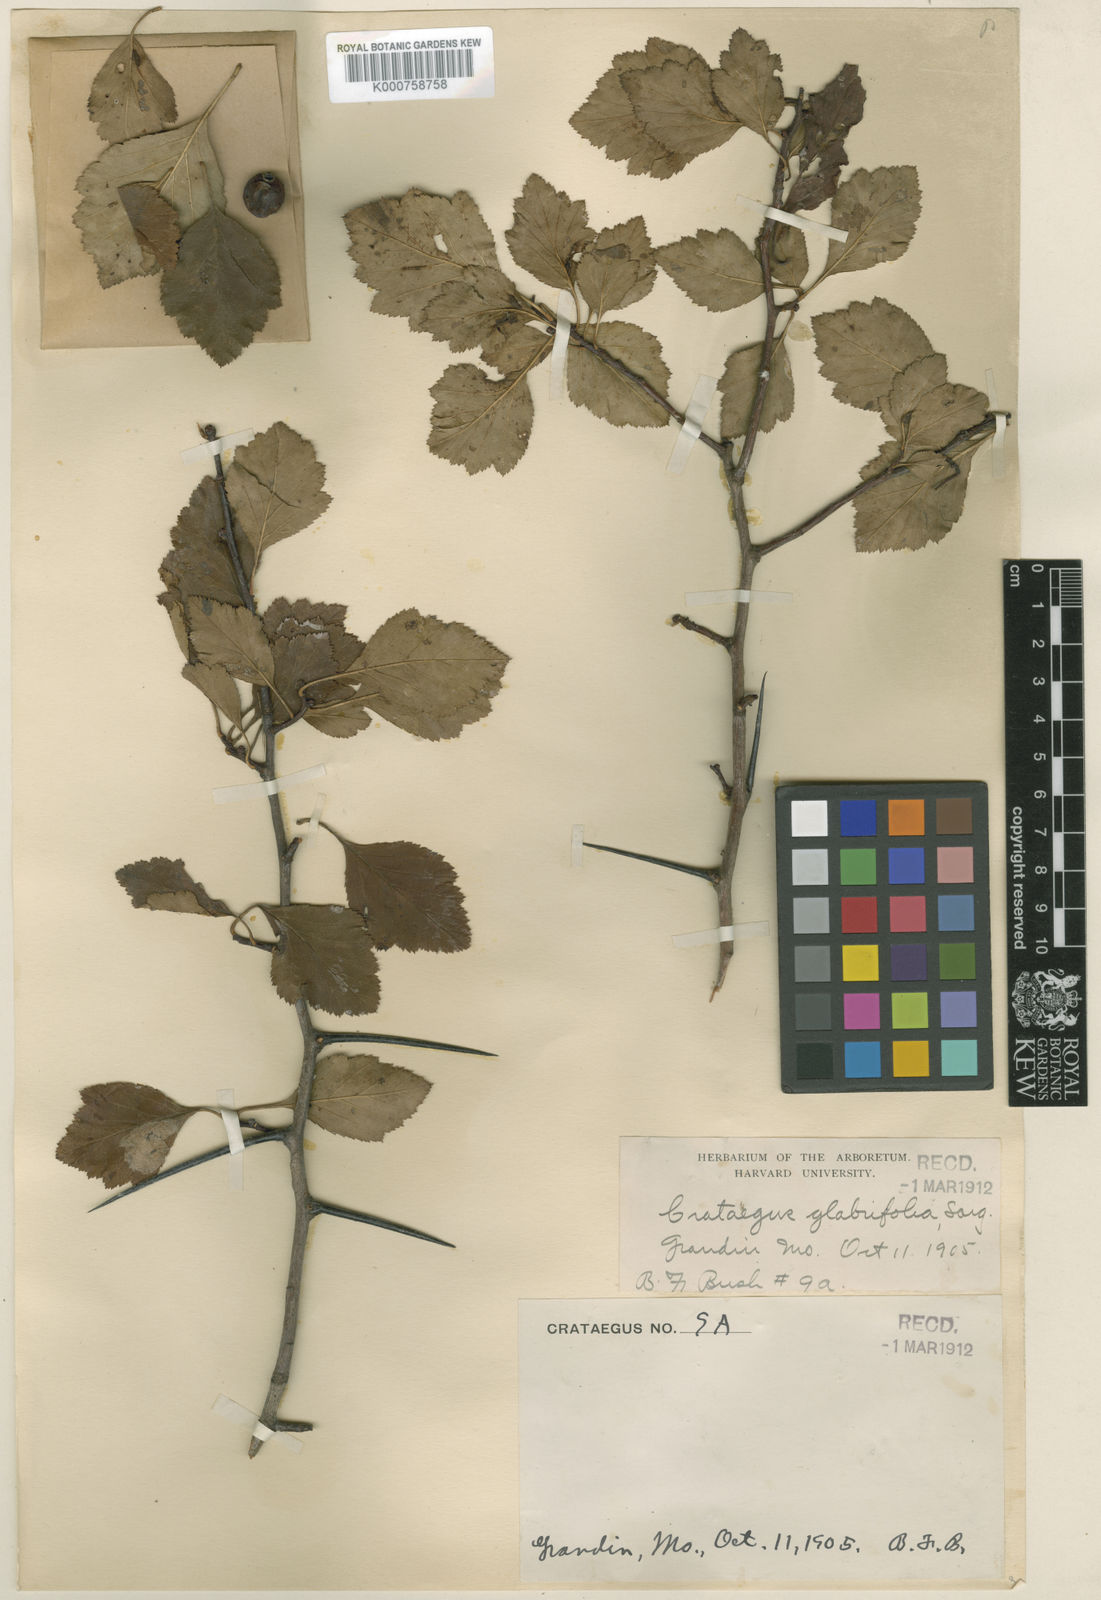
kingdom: Plantae
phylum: Tracheophyta
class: Magnoliopsida
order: Rosales
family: Rosaceae
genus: Crataegus
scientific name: Crataegus chrysocarpa
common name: Fire-berry hawthorn
